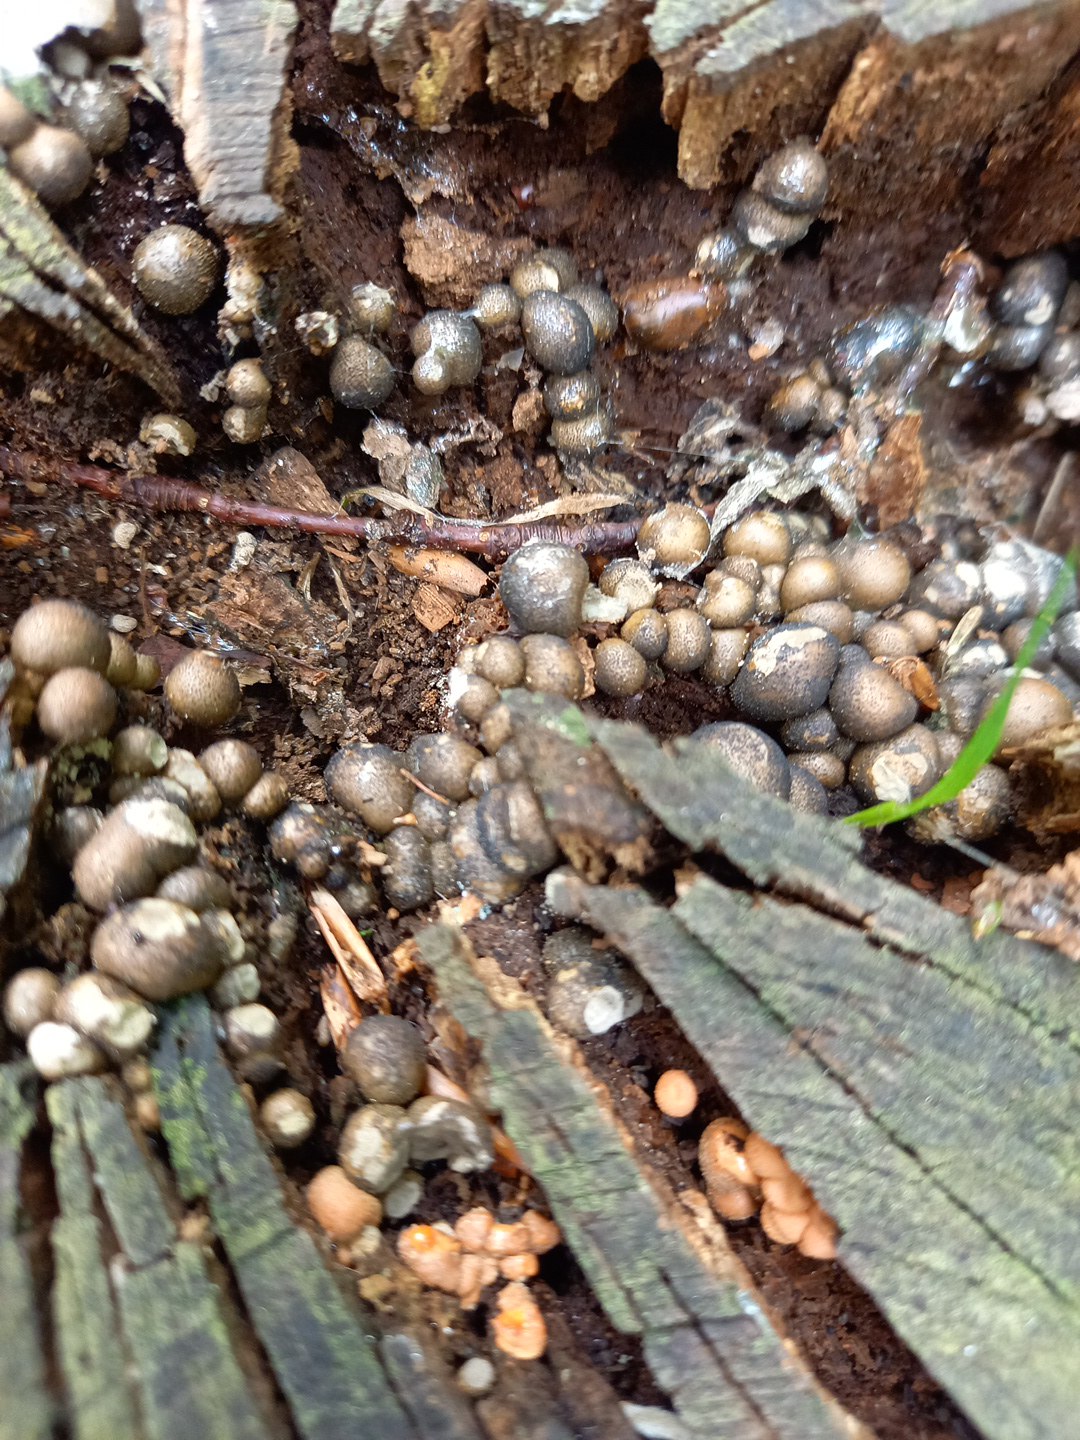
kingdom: Protozoa
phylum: Mycetozoa
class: Myxomycetes
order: Cribrariales
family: Tubiferaceae
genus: Lycogala
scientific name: Lycogala epidendrum
